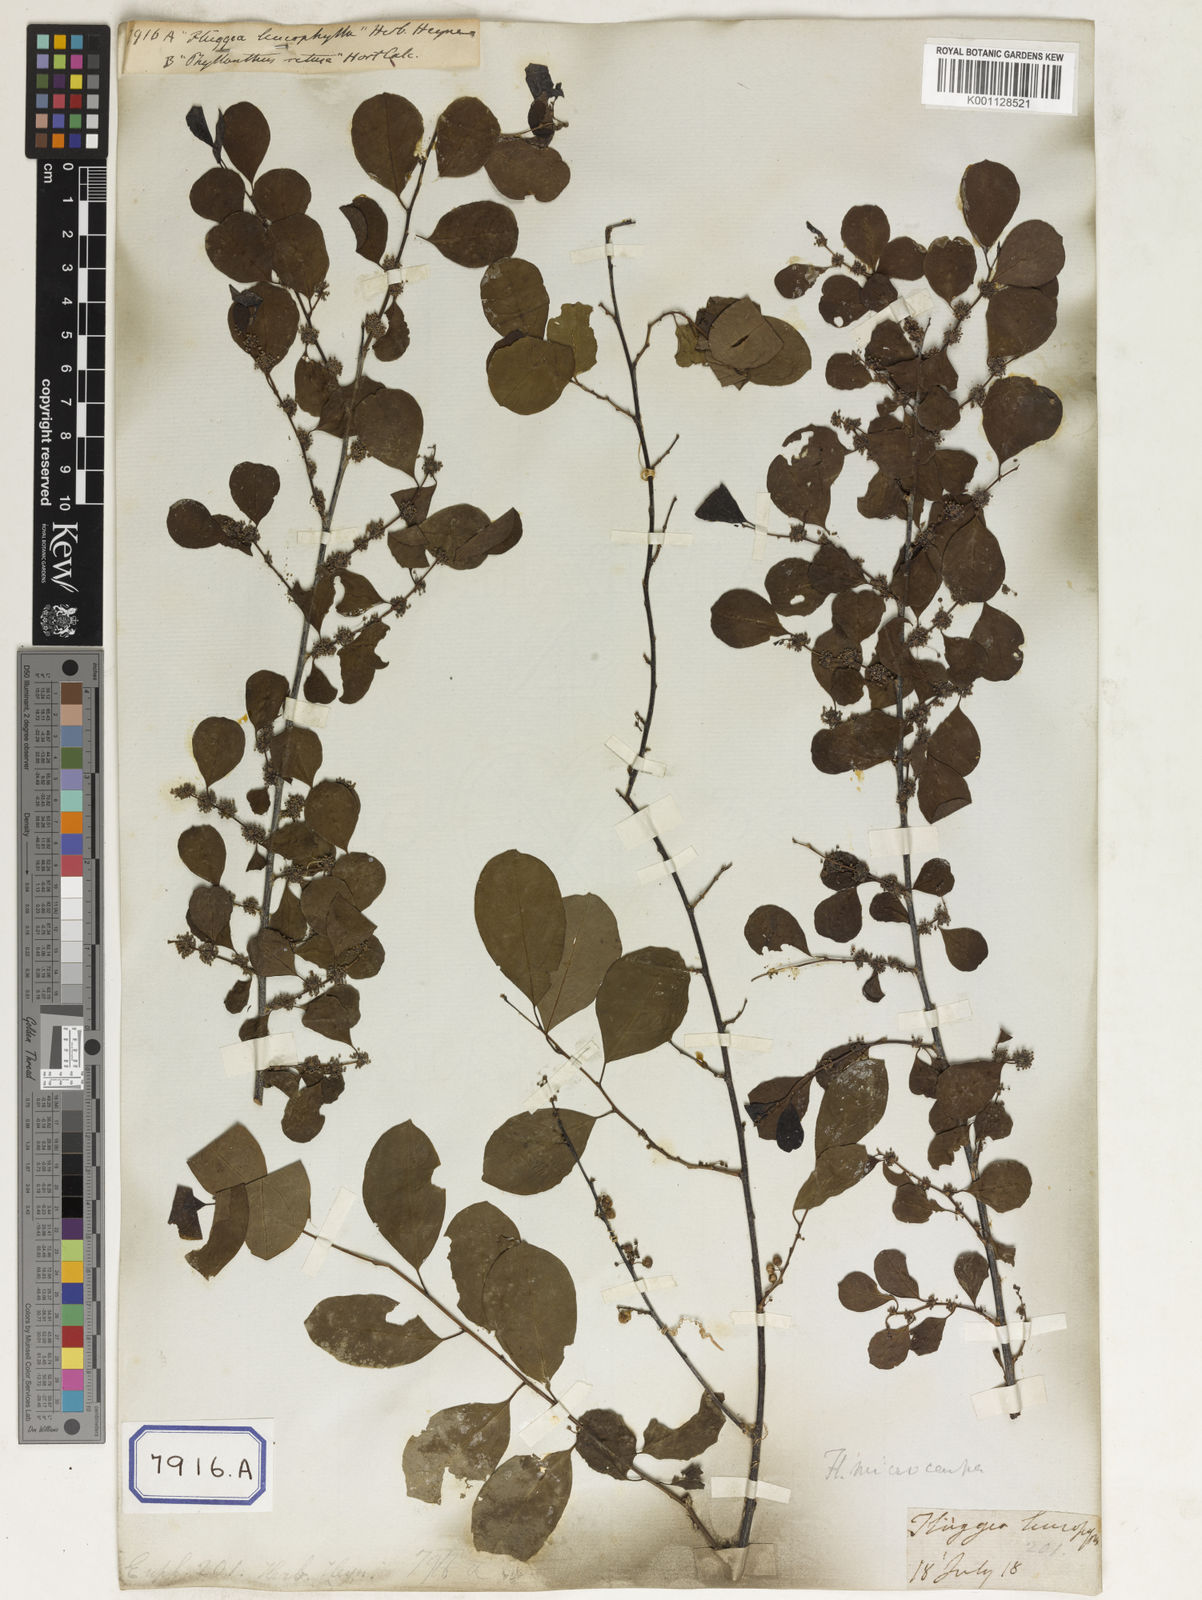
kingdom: Plantae
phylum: Tracheophyta
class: Magnoliopsida
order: Malpighiales
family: Euphorbiaceae
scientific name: Euphorbiaceae
